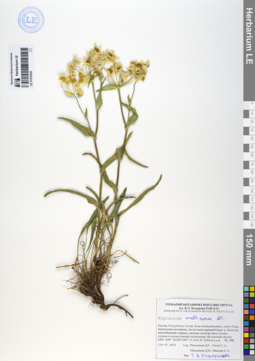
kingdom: Plantae
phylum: Tracheophyta
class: Magnoliopsida
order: Apiales
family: Apiaceae
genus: Bupleurum
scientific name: Bupleurum multinerve
